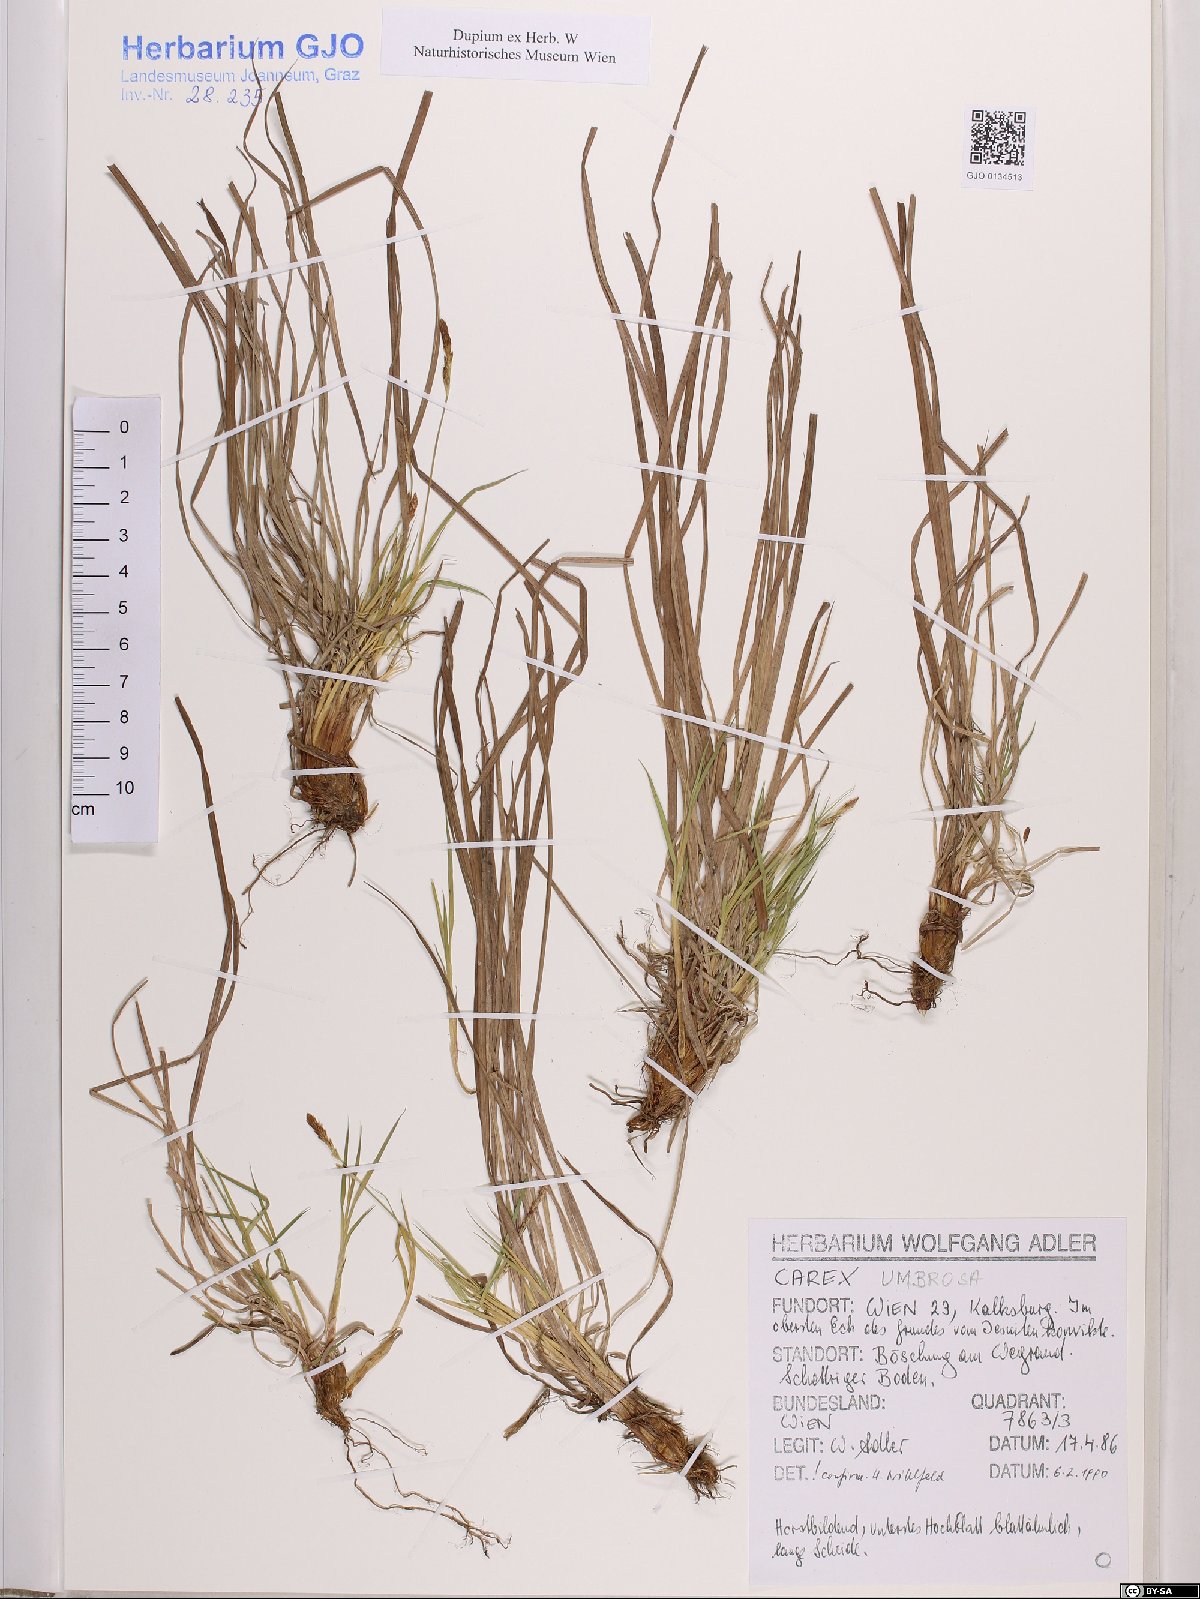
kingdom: Plantae
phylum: Tracheophyta
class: Liliopsida
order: Poales
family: Cyperaceae
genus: Carex
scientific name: Carex umbrosa
